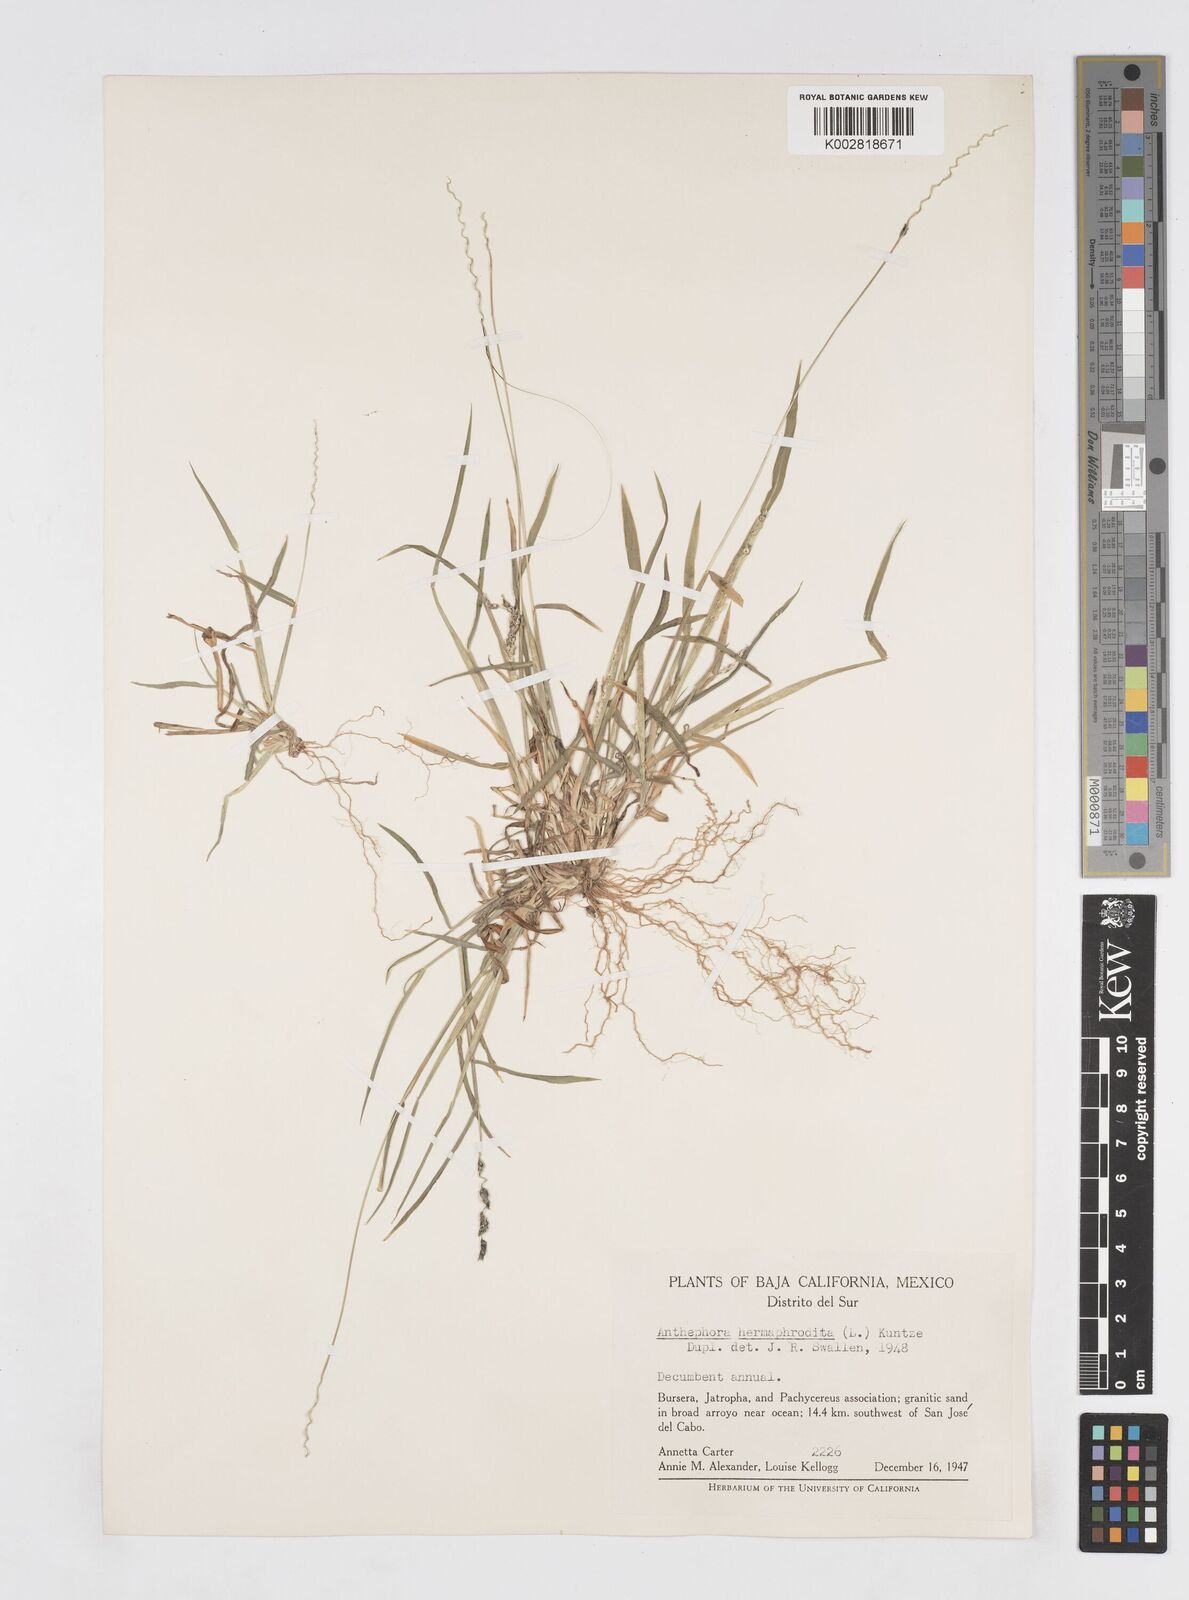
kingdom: Plantae
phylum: Tracheophyta
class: Liliopsida
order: Poales
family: Poaceae
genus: Anthephora
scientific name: Anthephora hermaphrodita
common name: Oldfield grass
